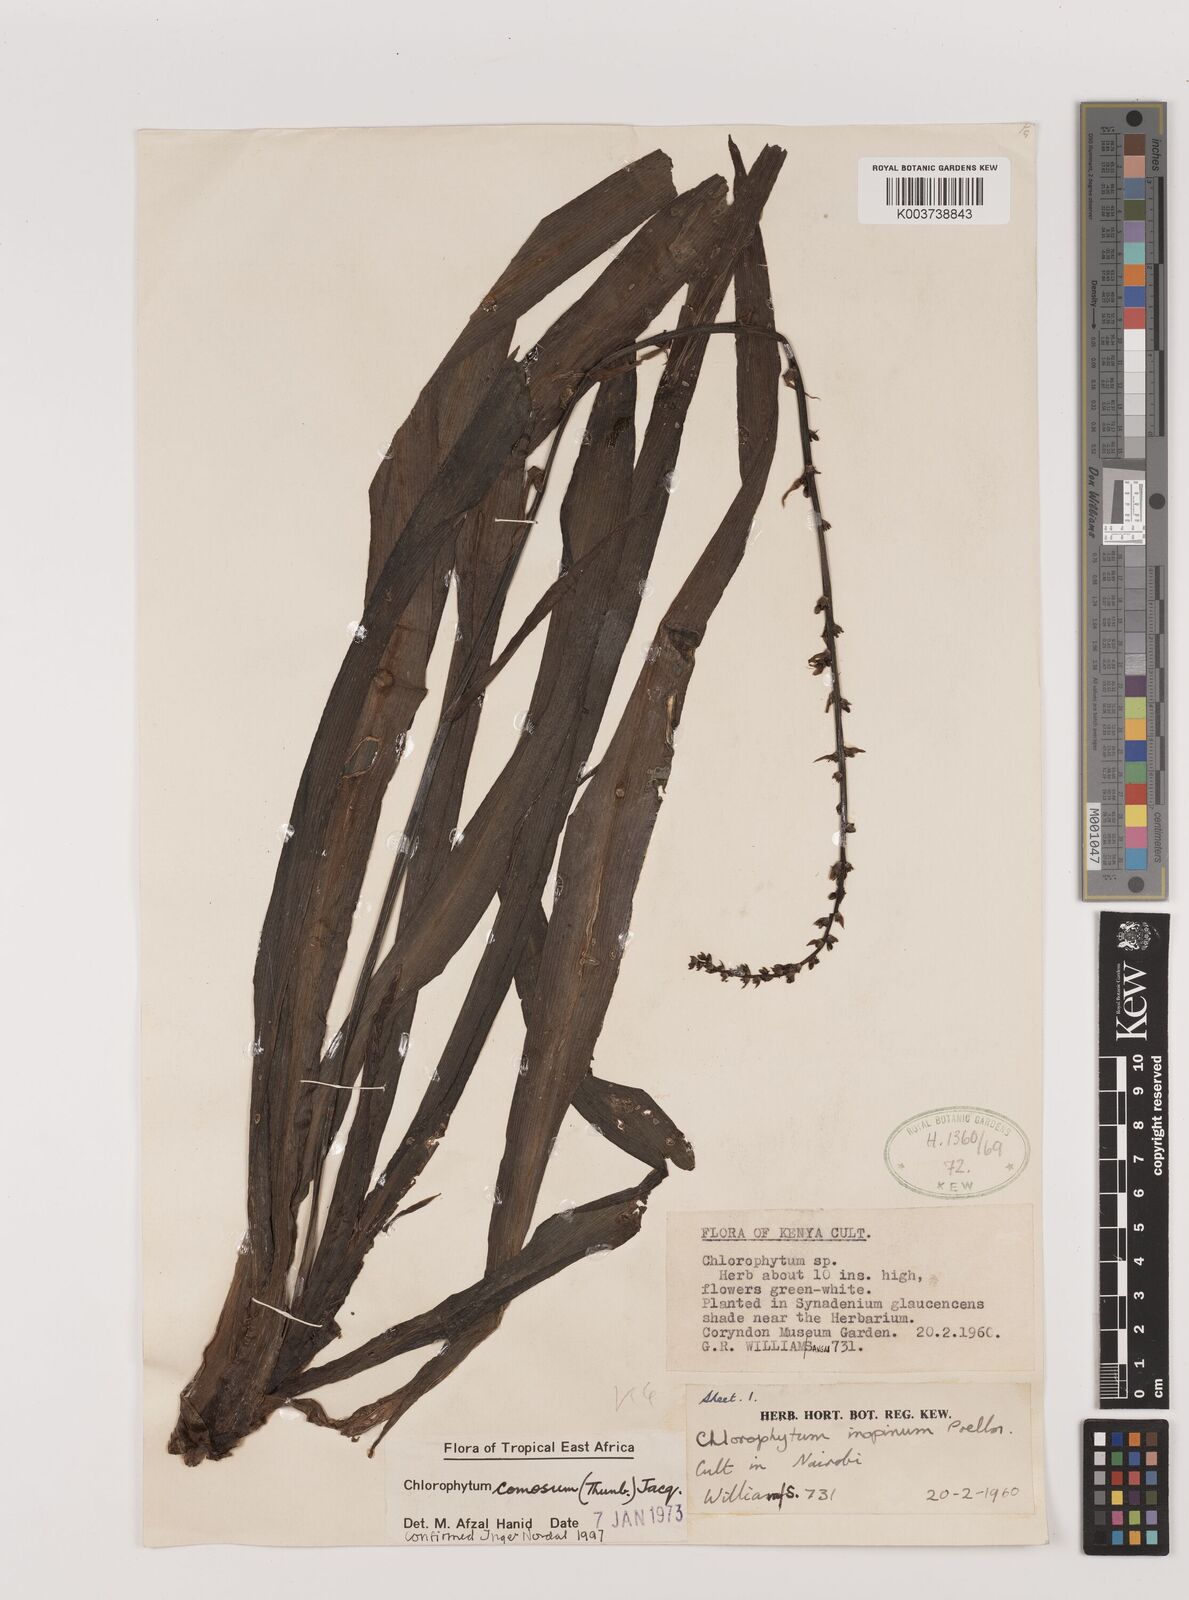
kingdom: Plantae
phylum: Tracheophyta
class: Liliopsida
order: Asparagales
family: Asparagaceae
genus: Chlorophytum
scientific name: Chlorophytum comosum
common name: Spider plant
